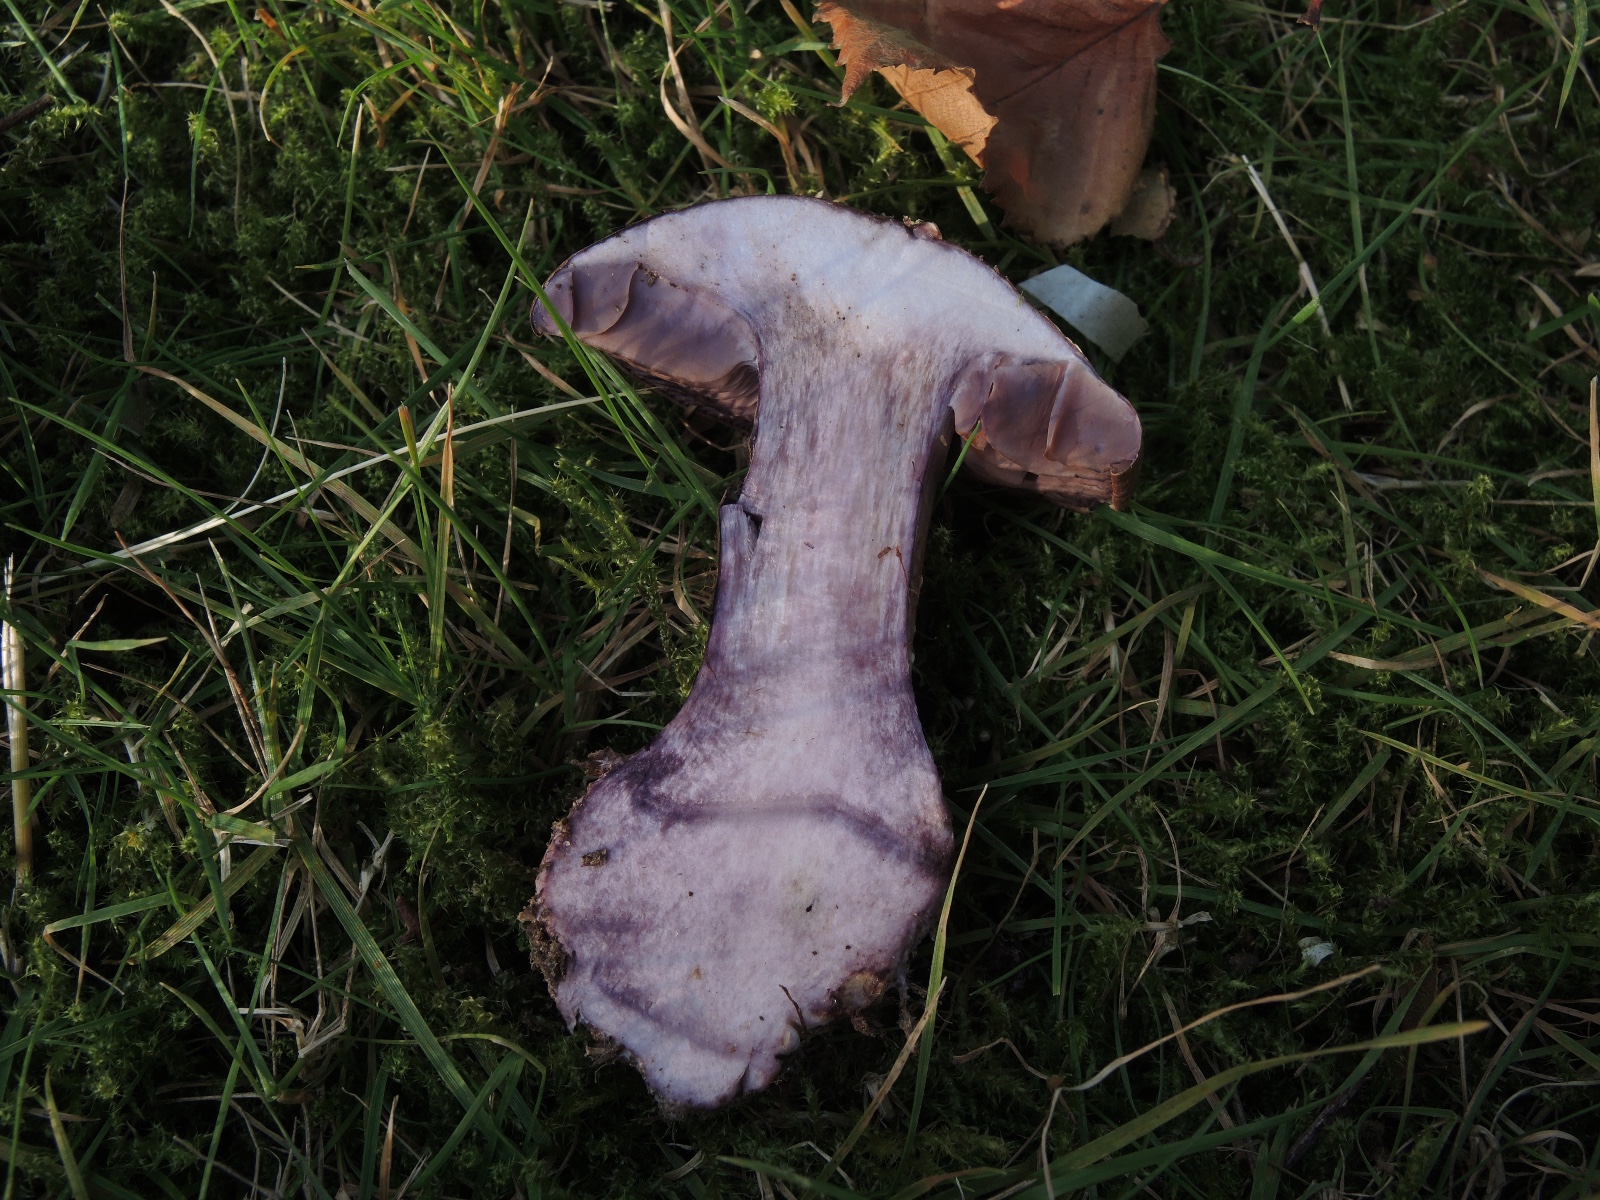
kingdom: Fungi
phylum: Basidiomycota
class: Agaricomycetes
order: Agaricales
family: Cortinariaceae
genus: Thaxterogaster
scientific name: Thaxterogaster purpurascens
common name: purpurbrun slørhat
